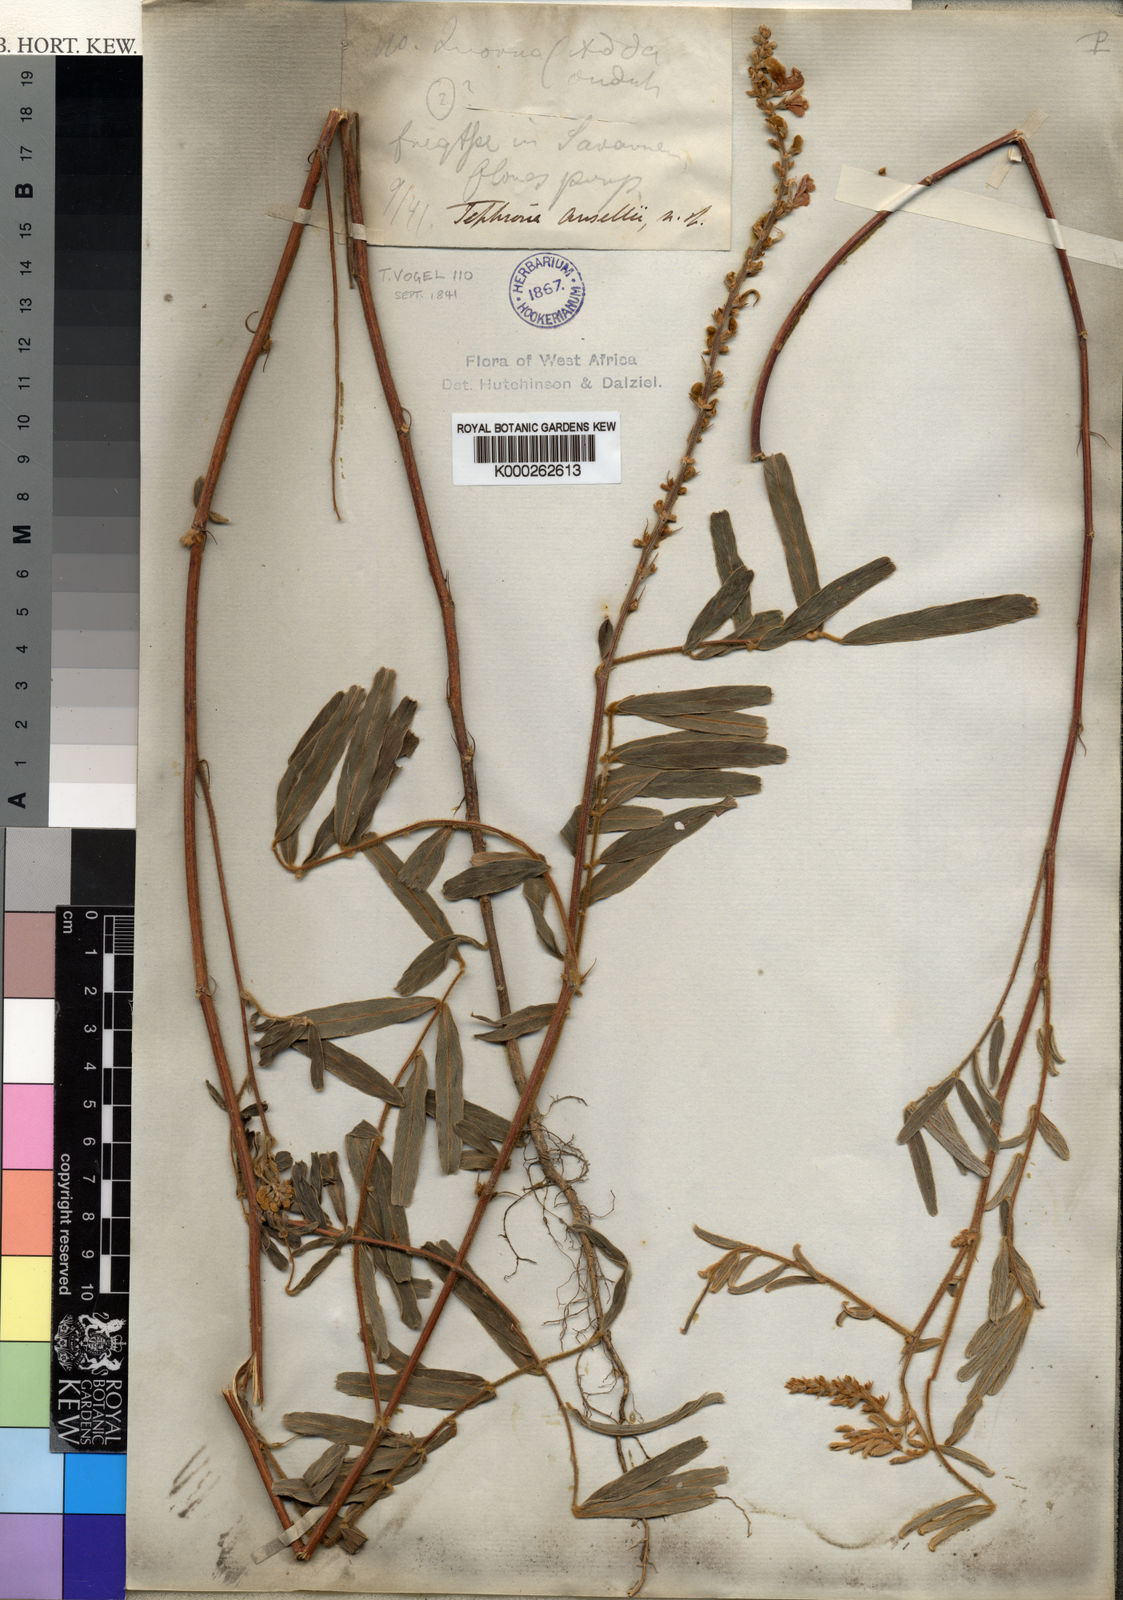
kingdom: Plantae
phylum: Tracheophyta
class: Magnoliopsida
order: Fabales
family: Fabaceae
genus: Tephrosia
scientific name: Tephrosia platycarpa
